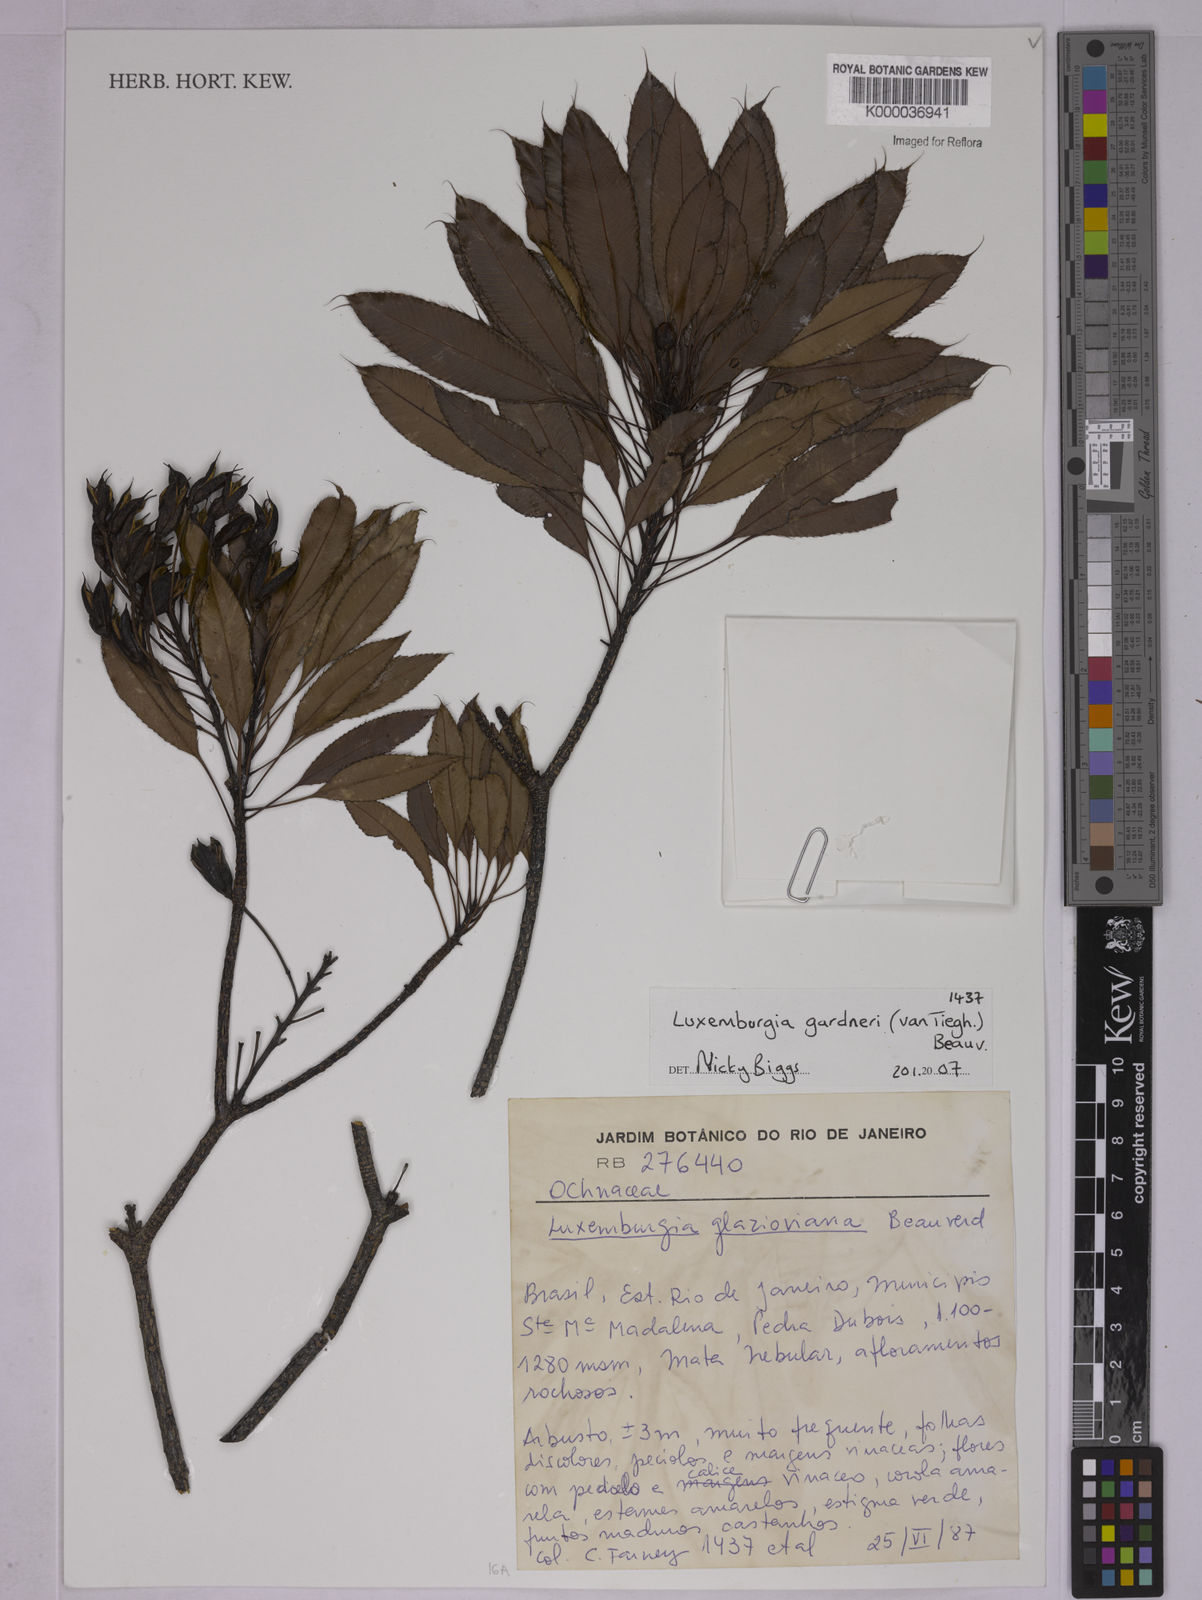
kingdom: Plantae
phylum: Tracheophyta
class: Magnoliopsida
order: Malpighiales
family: Ochnaceae
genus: Luxemburgia
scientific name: Luxemburgia ciliosa
